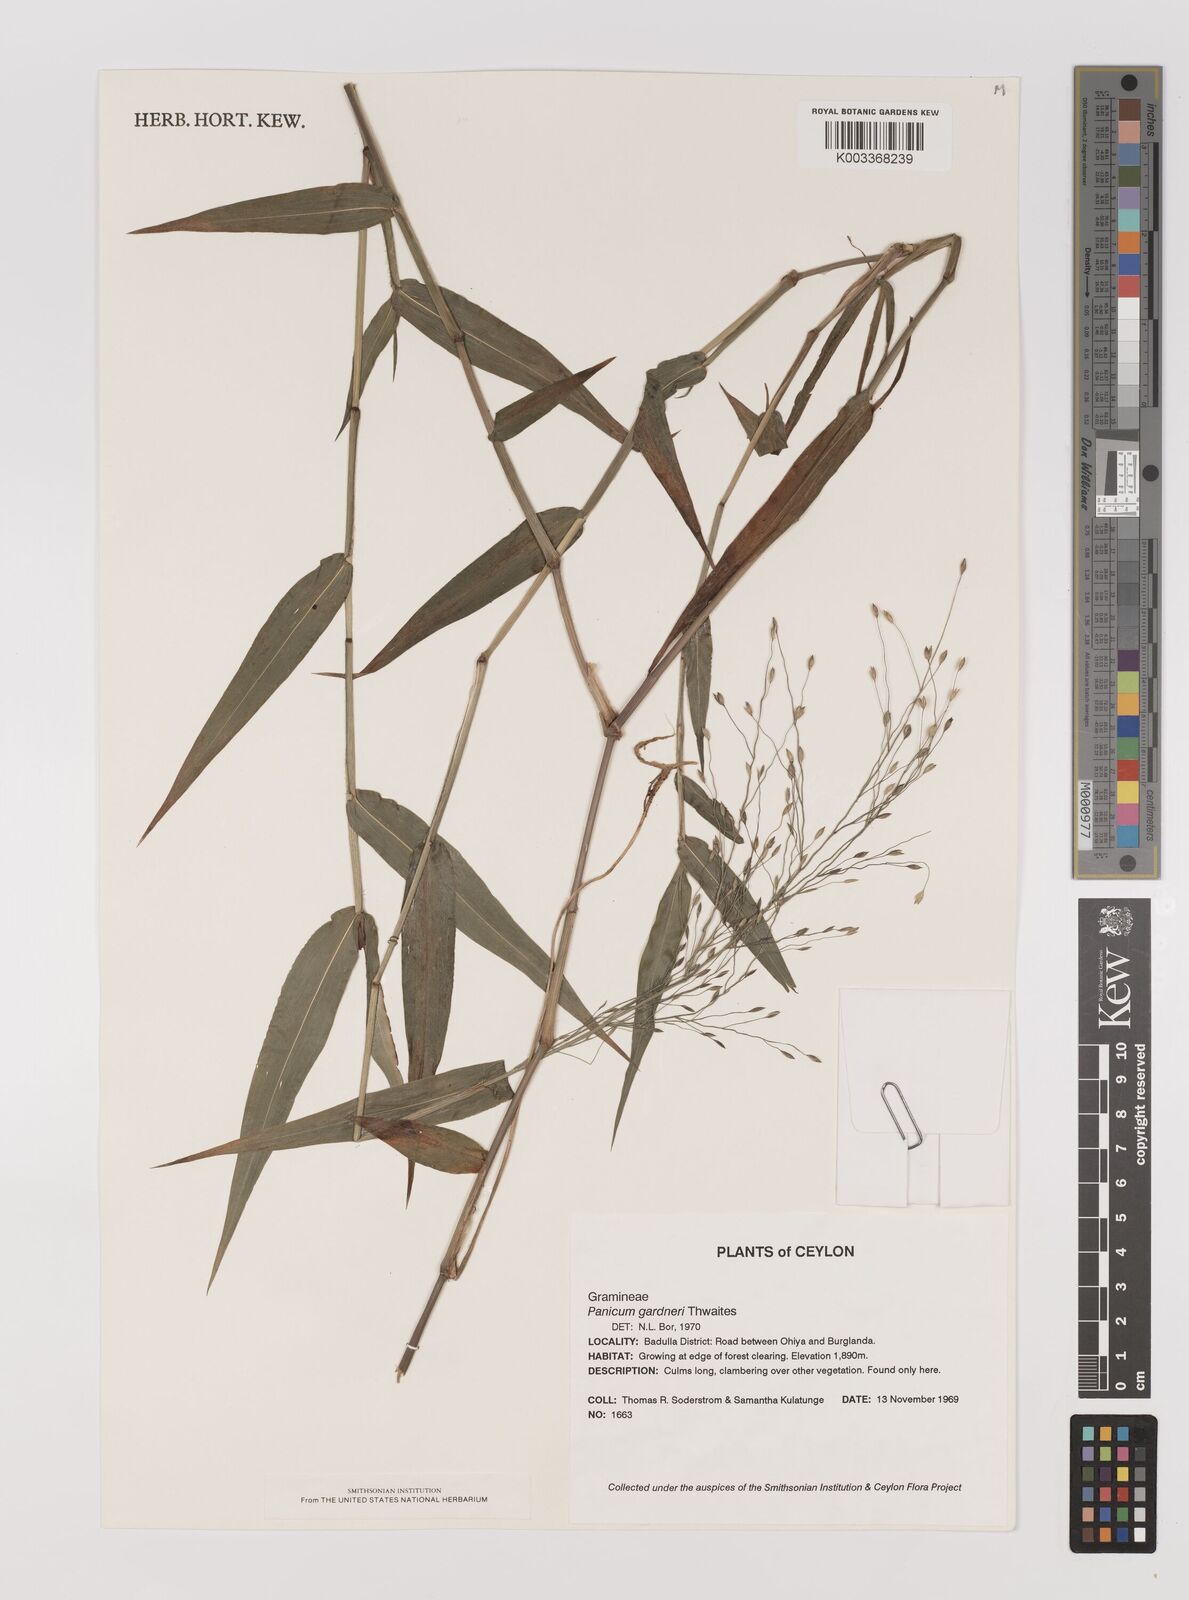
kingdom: Plantae
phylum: Tracheophyta
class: Liliopsida
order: Poales
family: Poaceae
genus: Panicum
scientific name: Panicum gardneri
